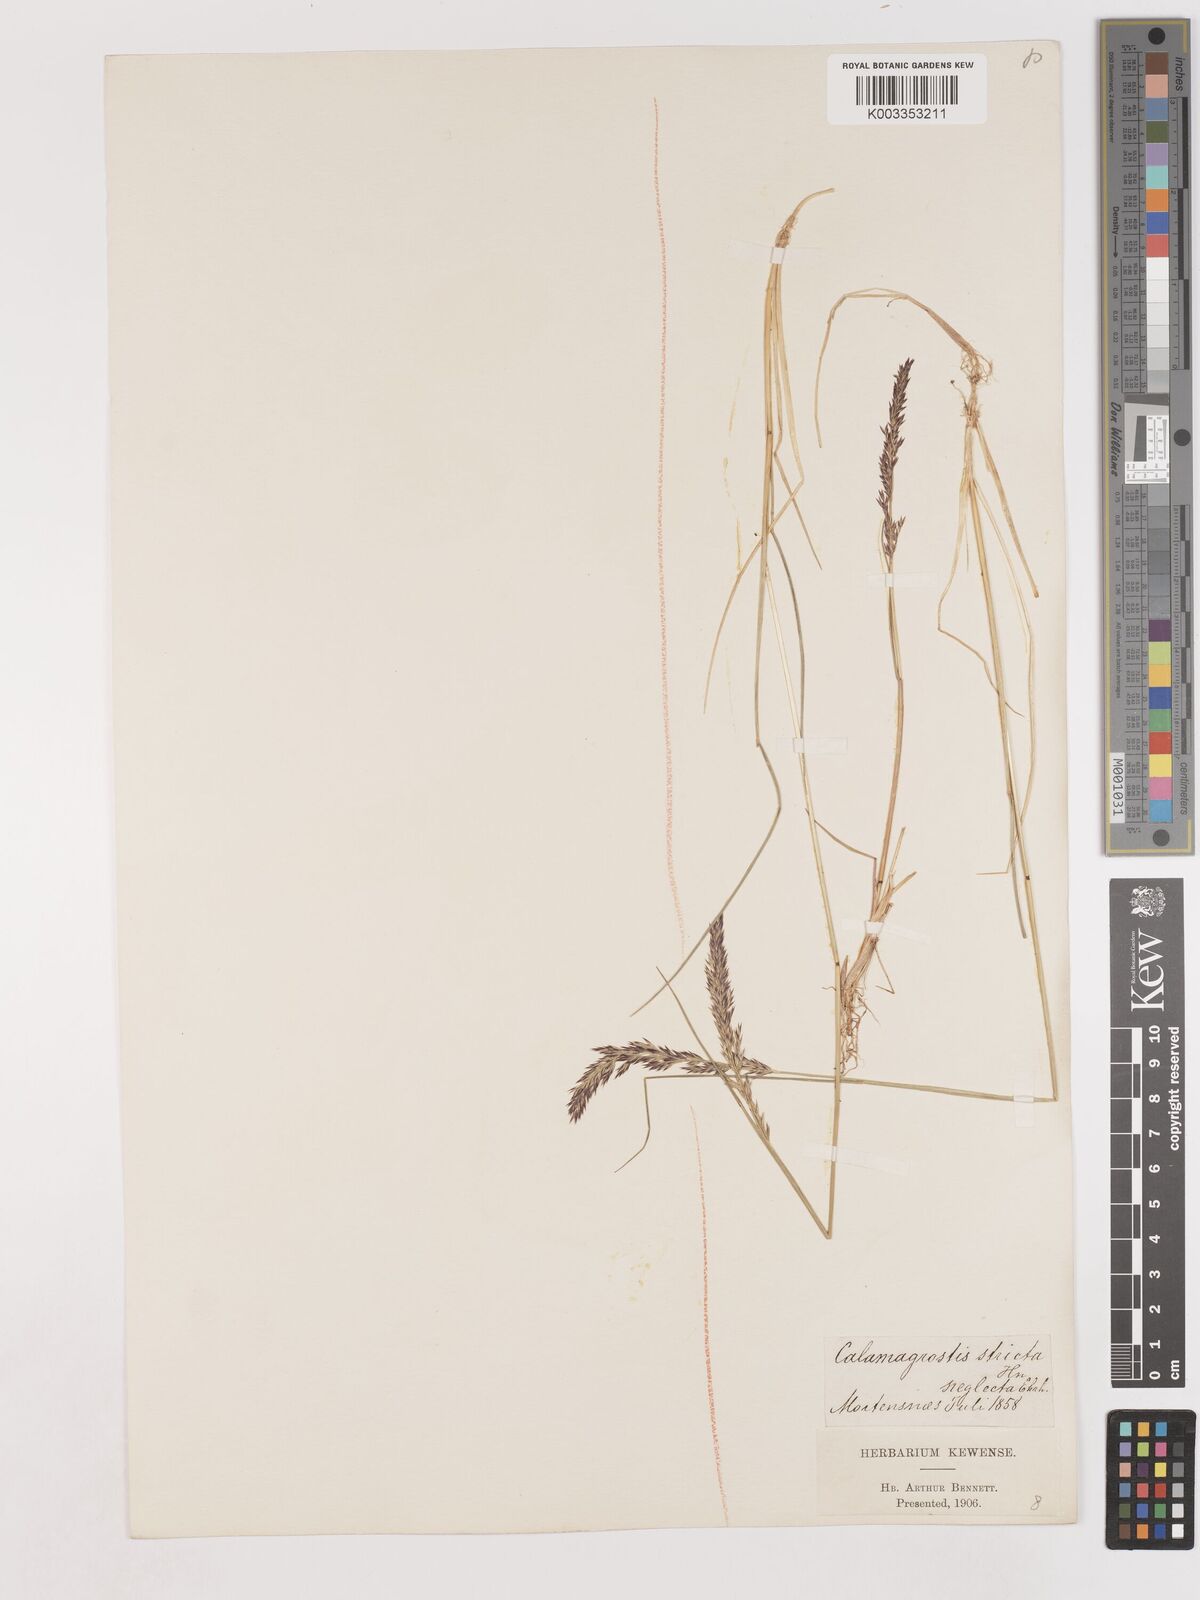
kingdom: Plantae
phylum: Tracheophyta
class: Liliopsida
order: Poales
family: Poaceae
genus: Cinnagrostis
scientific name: Cinnagrostis recta
